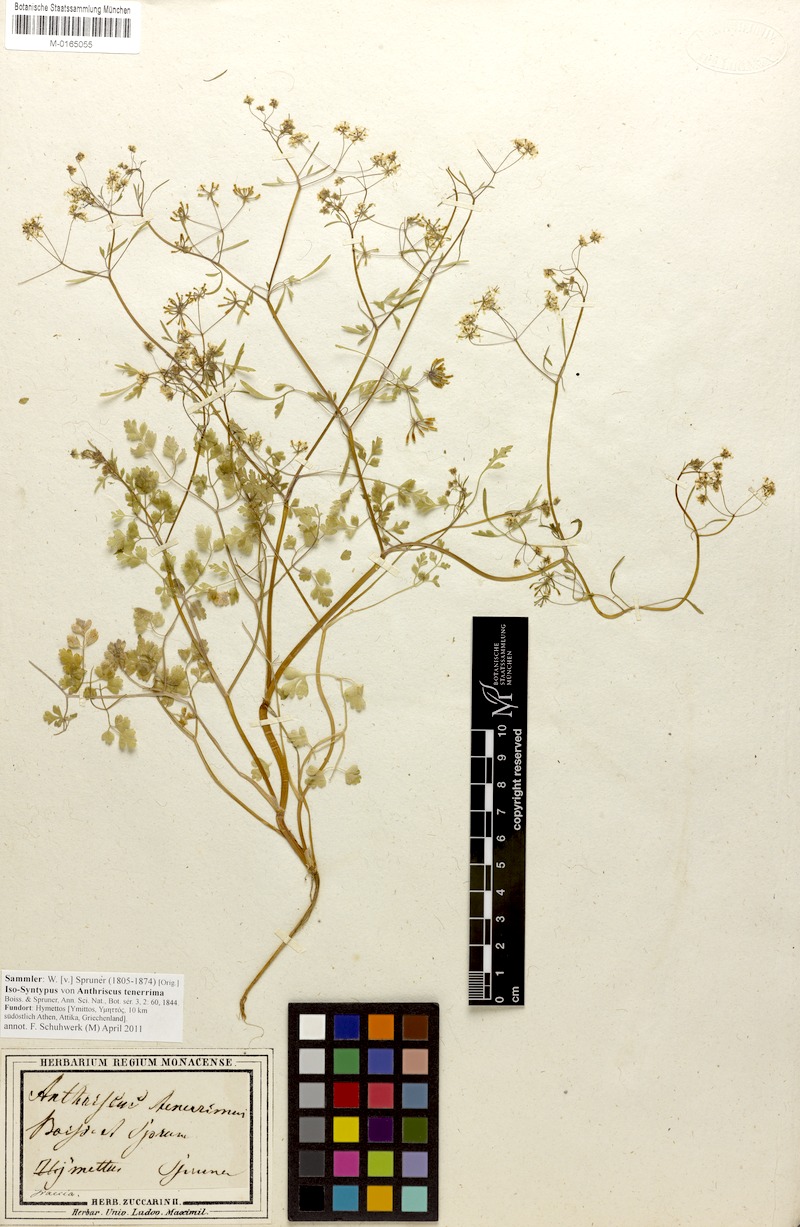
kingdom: Plantae
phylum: Tracheophyta
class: Magnoliopsida
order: Apiales
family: Apiaceae
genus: Anthriscus
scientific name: Anthriscus tenerrima
